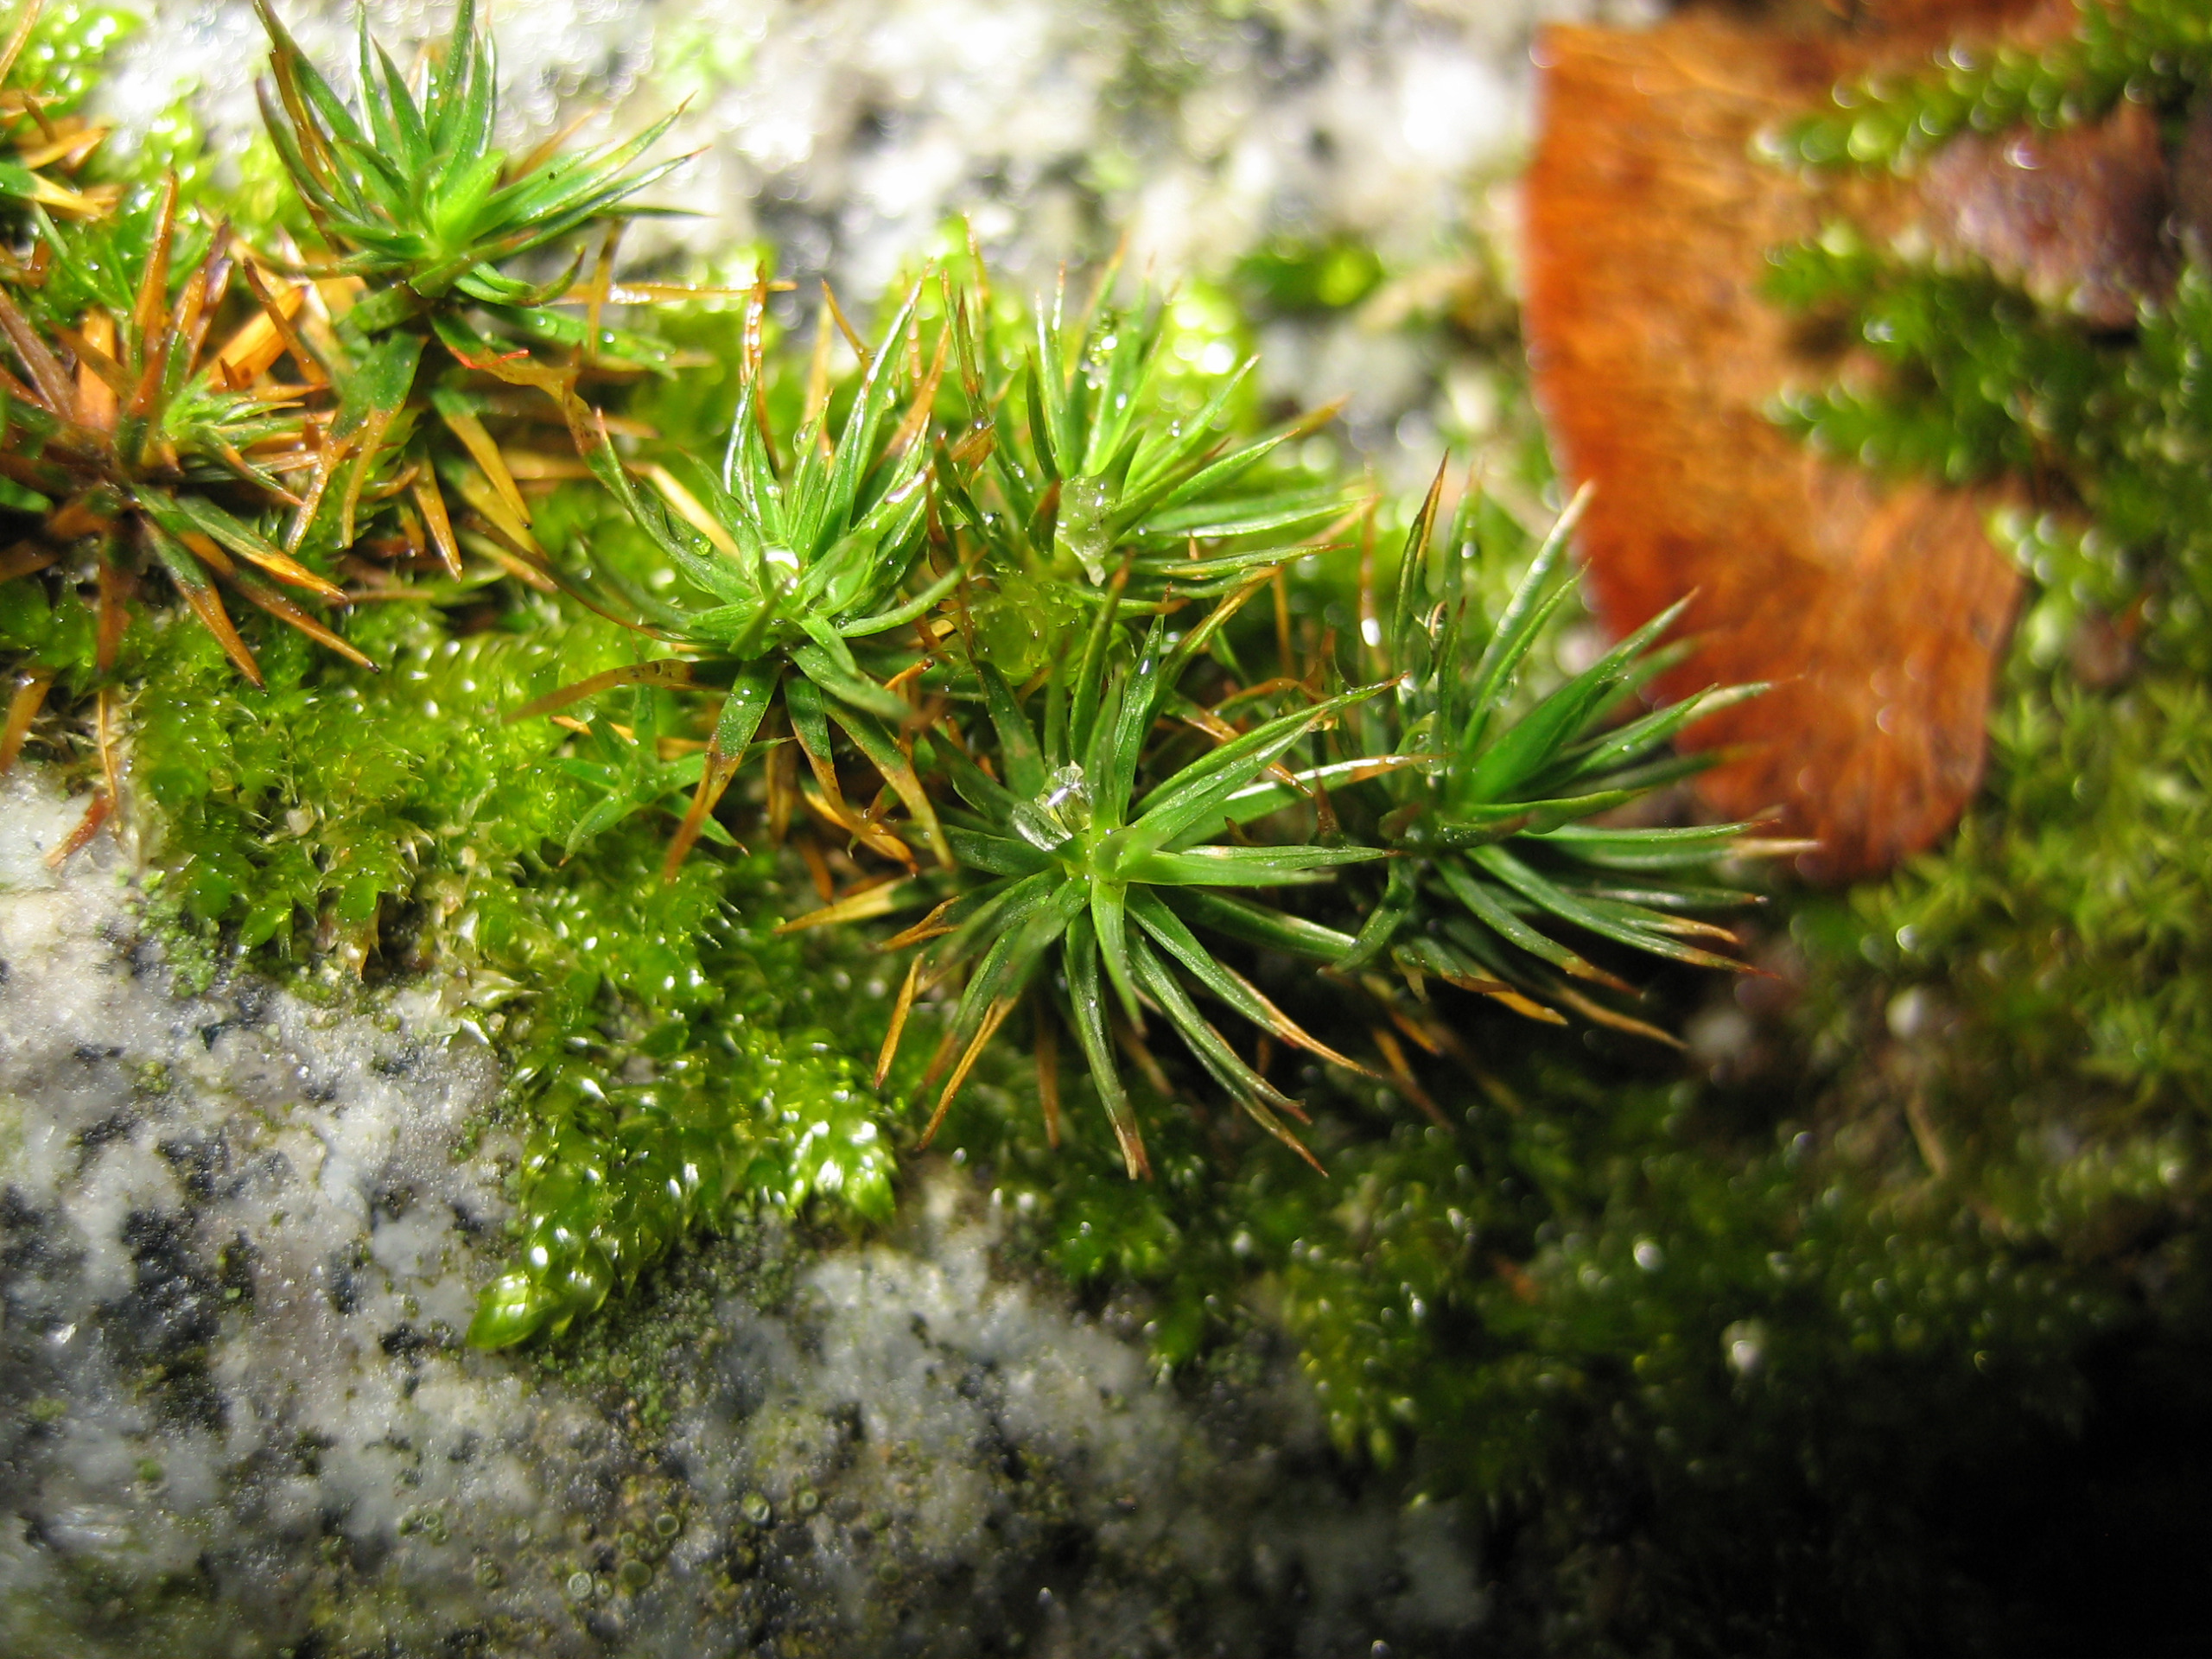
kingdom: Plantae
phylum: Bryophyta
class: Polytrichopsida
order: Polytrichales
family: Polytrichaceae
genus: Polytrichum
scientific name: Polytrichum juniperinum
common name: Ene-jomfruhår
